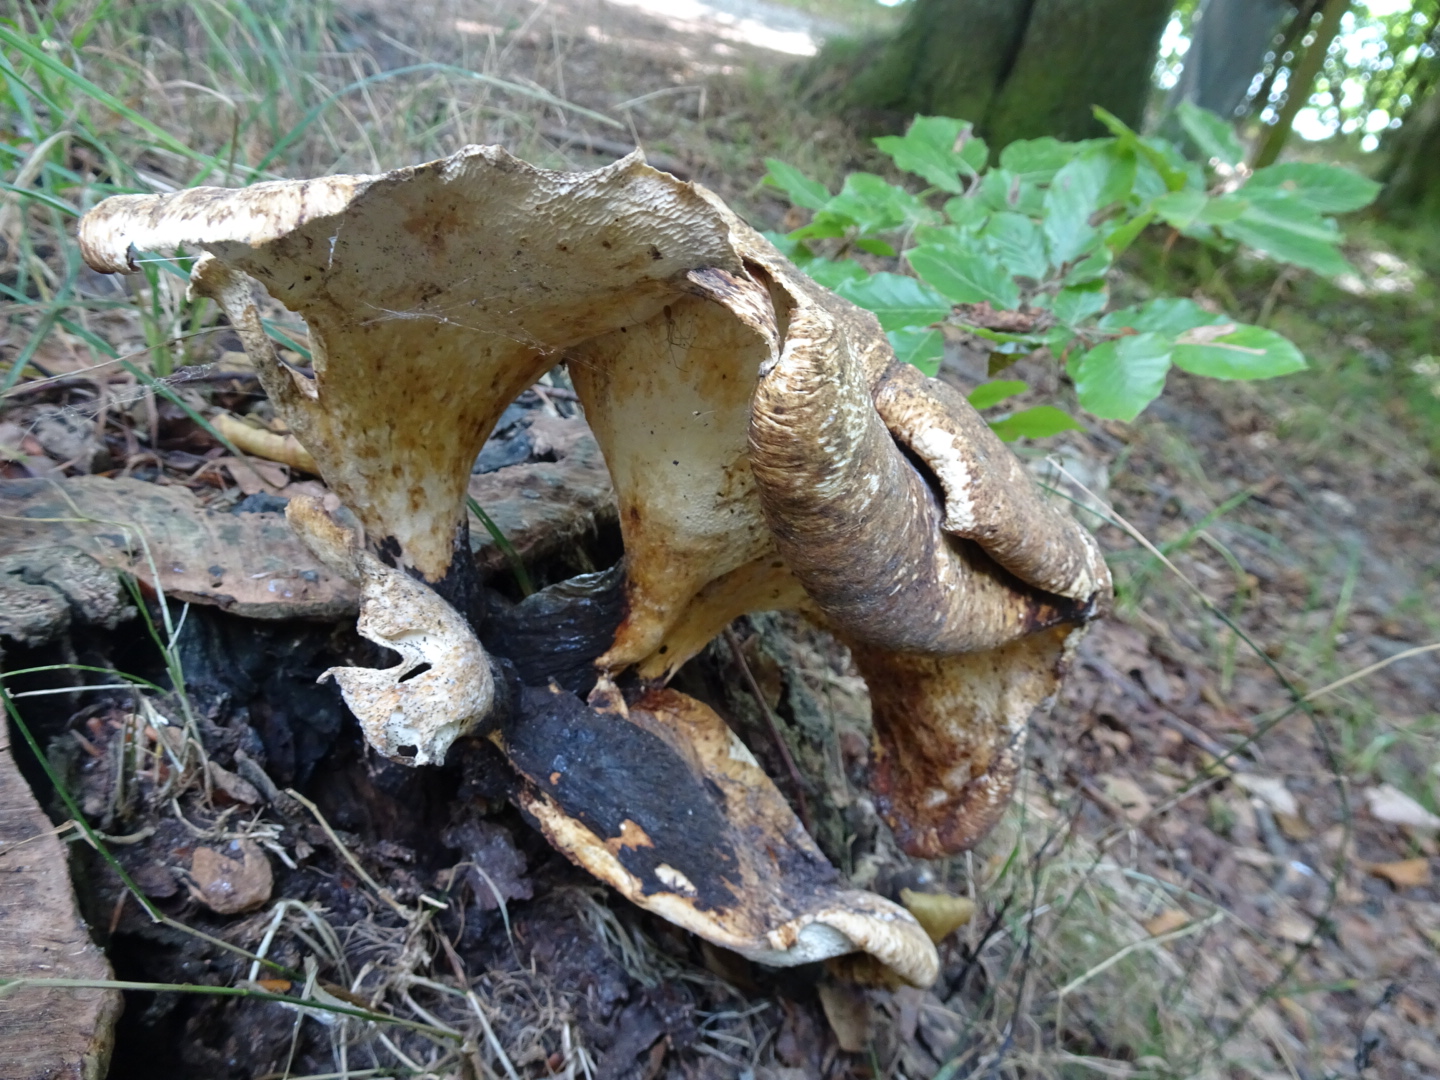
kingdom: Fungi
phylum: Basidiomycota
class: Agaricomycetes
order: Polyporales
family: Polyporaceae
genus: Cerioporus
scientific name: Cerioporus squamosus
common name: skællet stilkporesvamp
